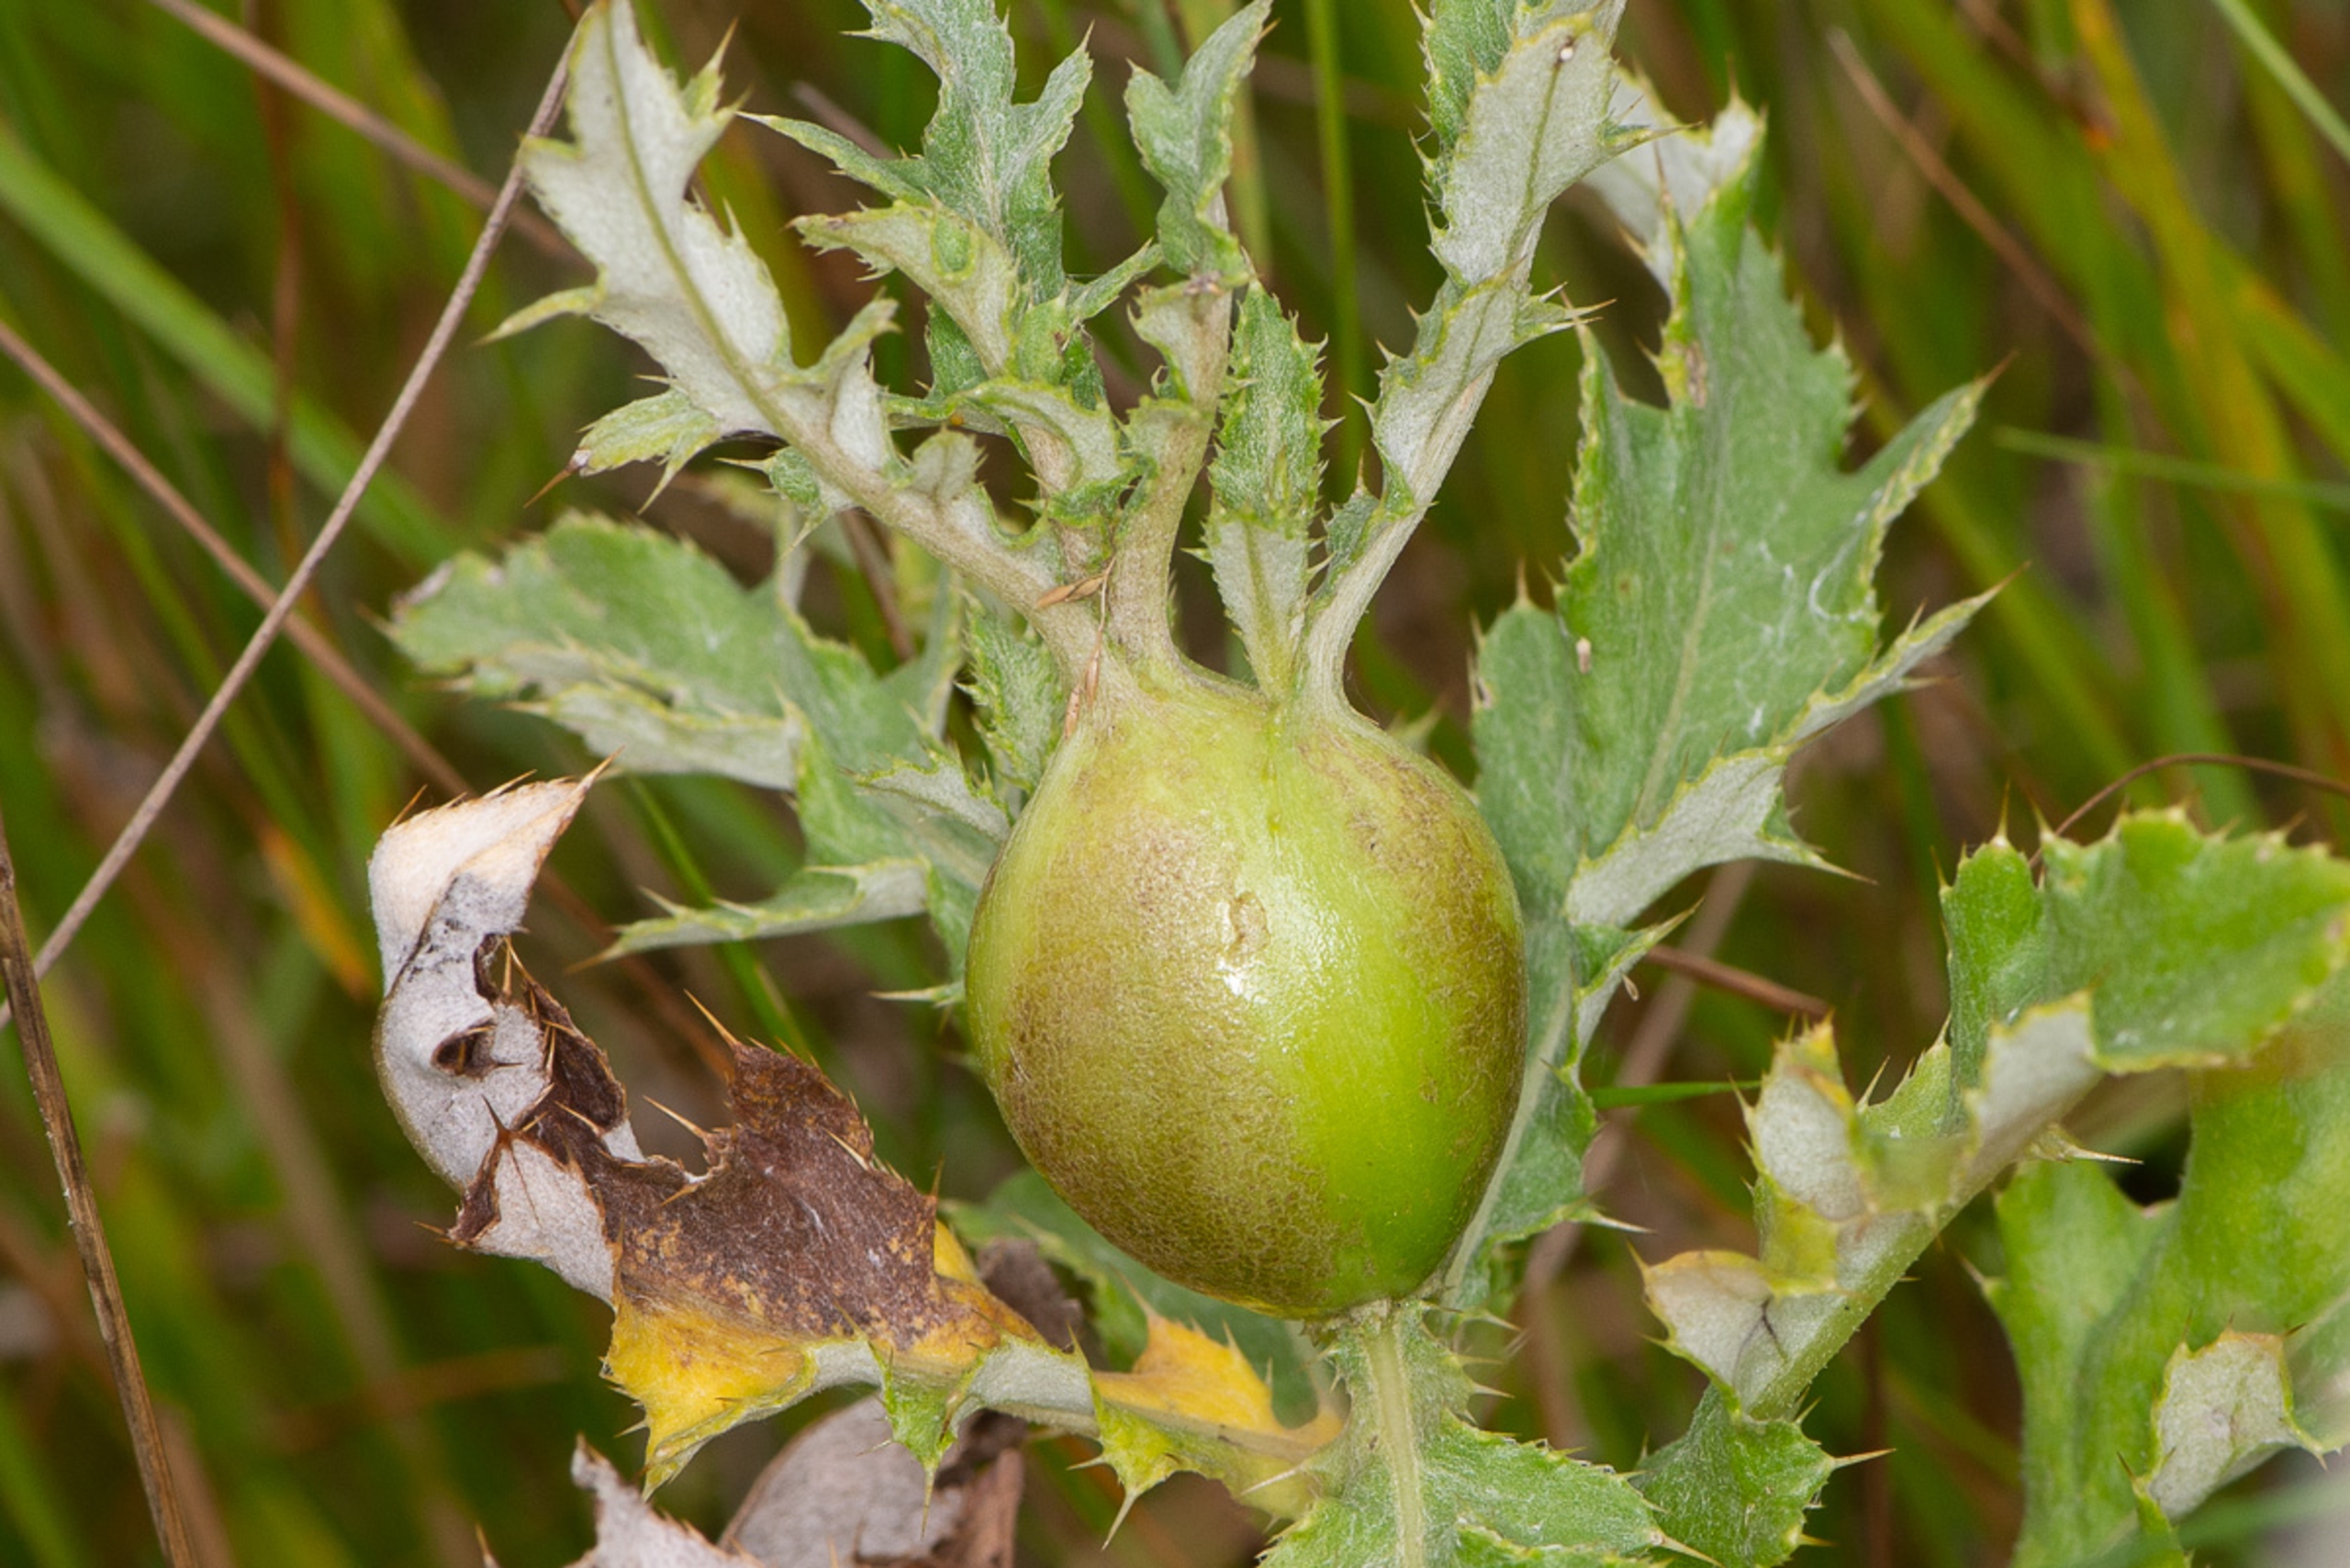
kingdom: Animalia
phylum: Arthropoda
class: Insecta
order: Diptera
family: Tephritidae
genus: Urophora
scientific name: Urophora cardui
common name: Tidselbåndflue
